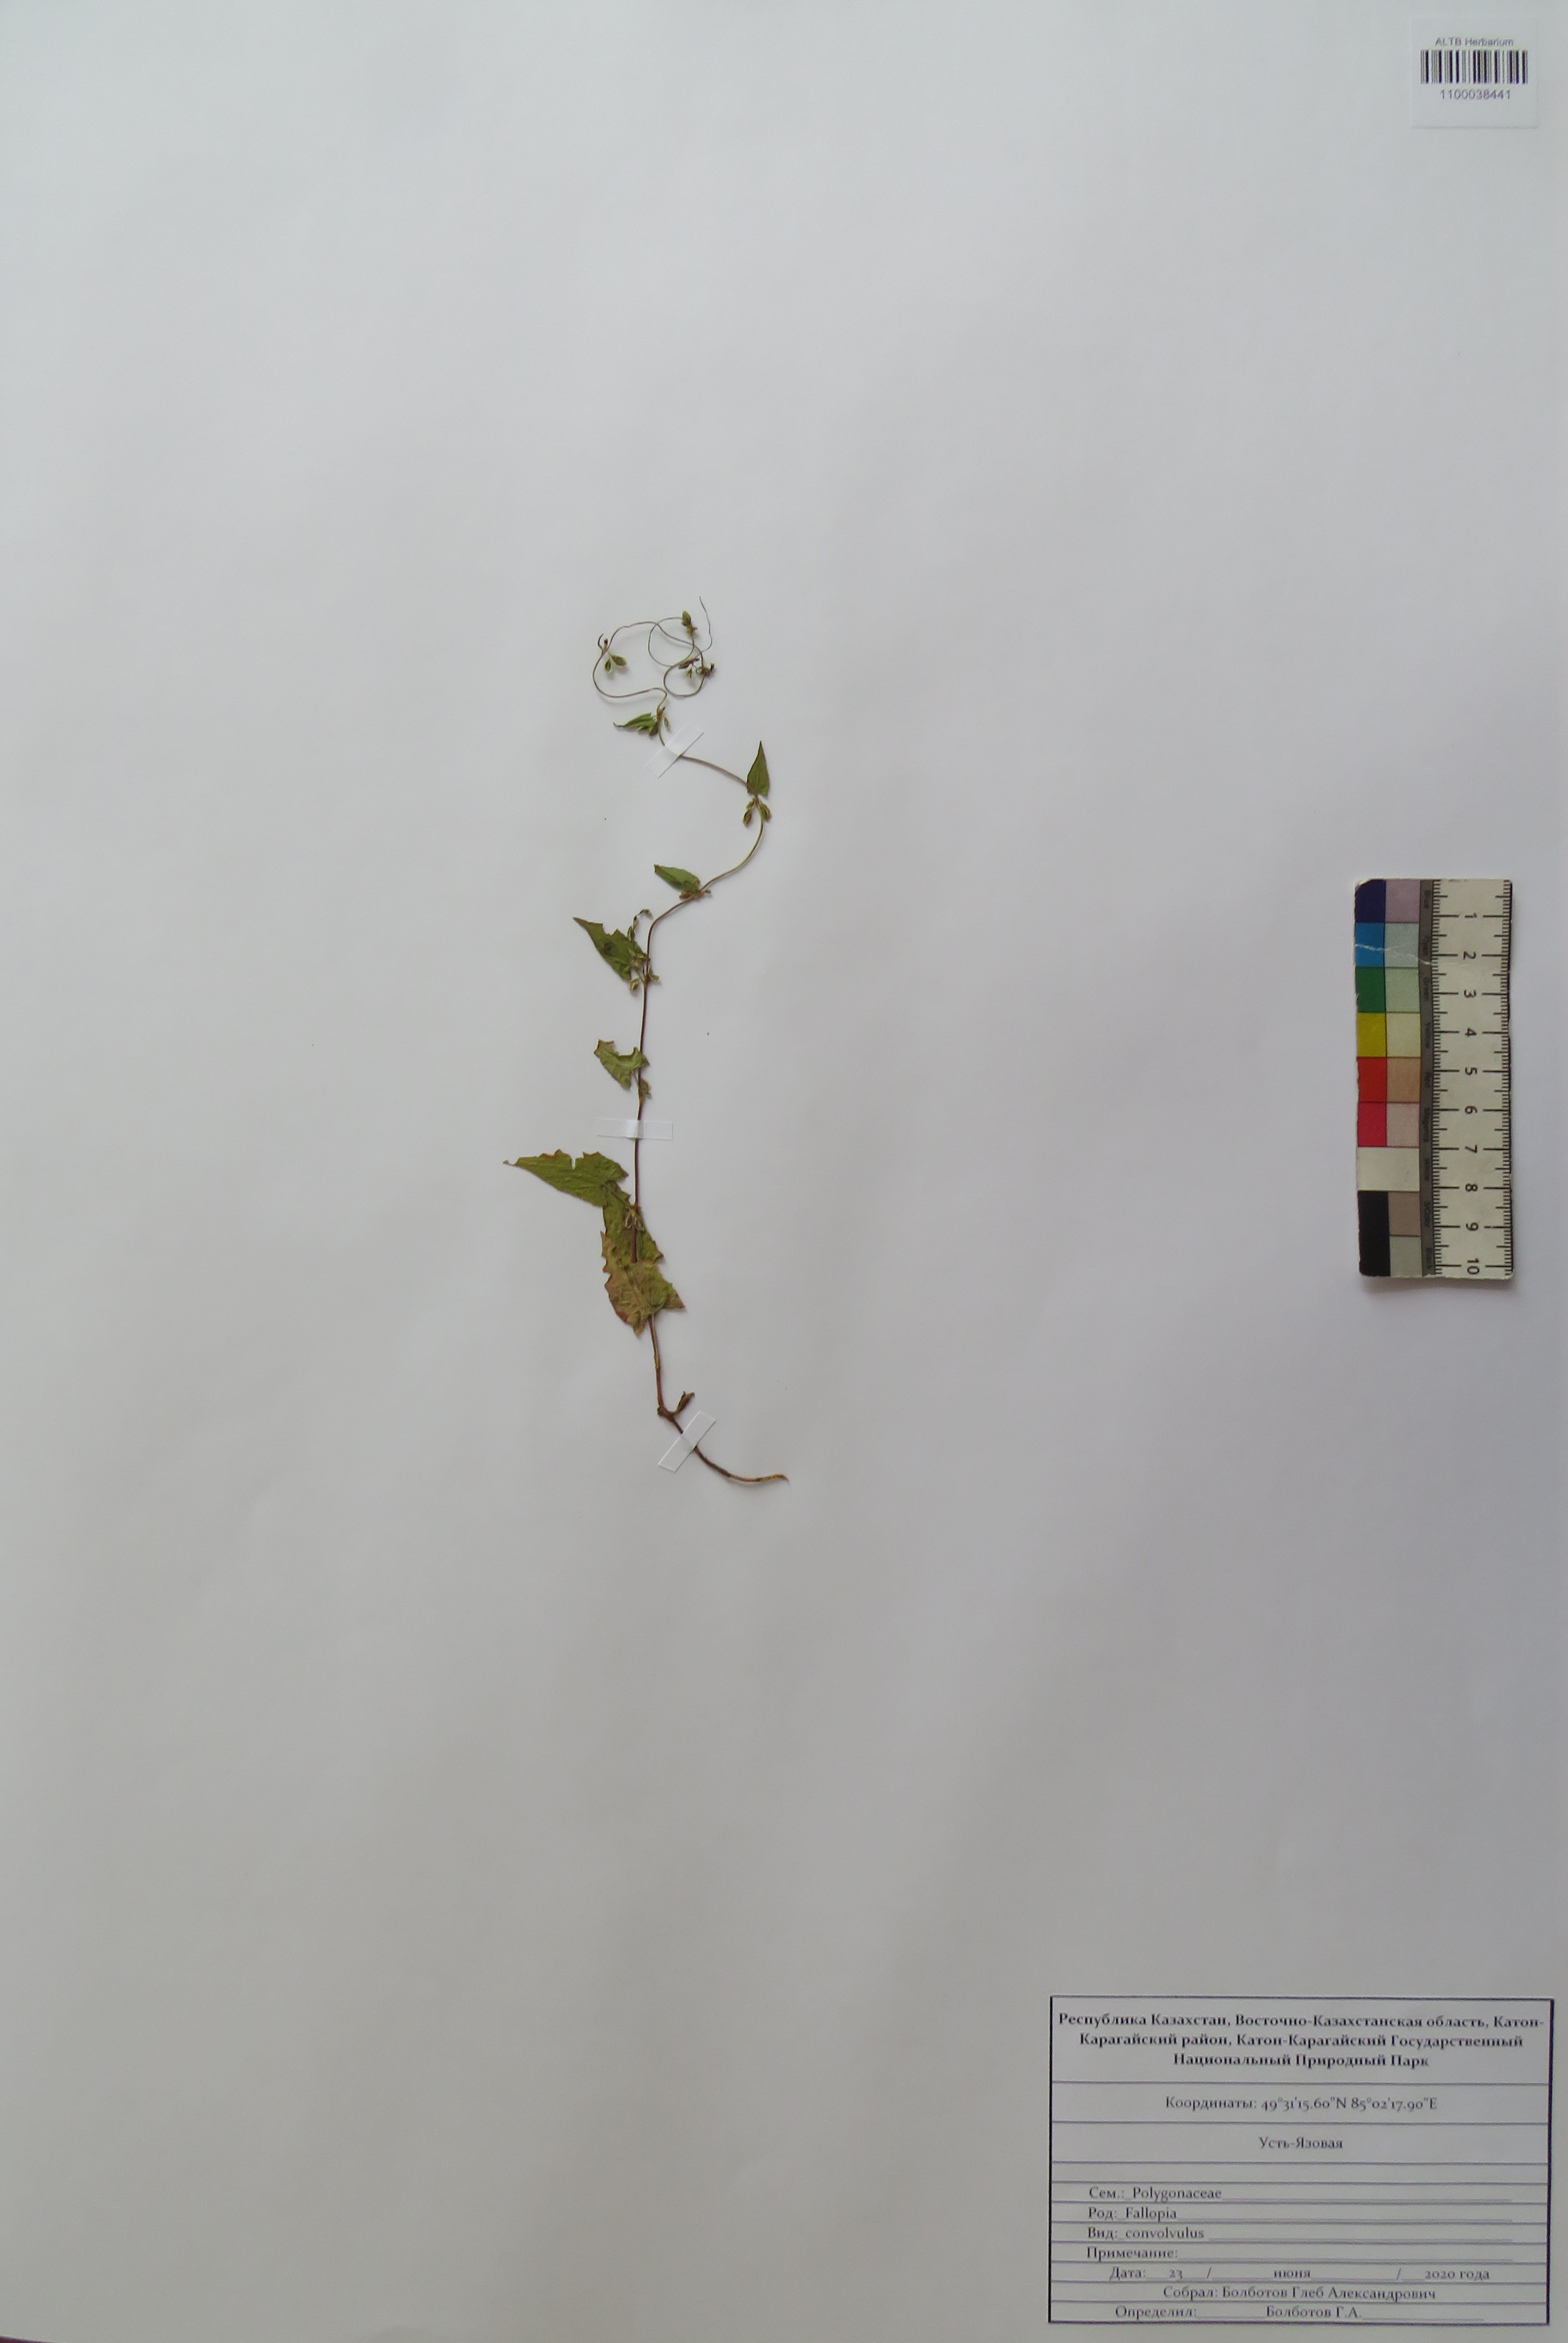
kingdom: Plantae
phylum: Tracheophyta
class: Magnoliopsida
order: Caryophyllales
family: Polygonaceae
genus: Fallopia
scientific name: Fallopia convolvulus
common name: Black bindweed
